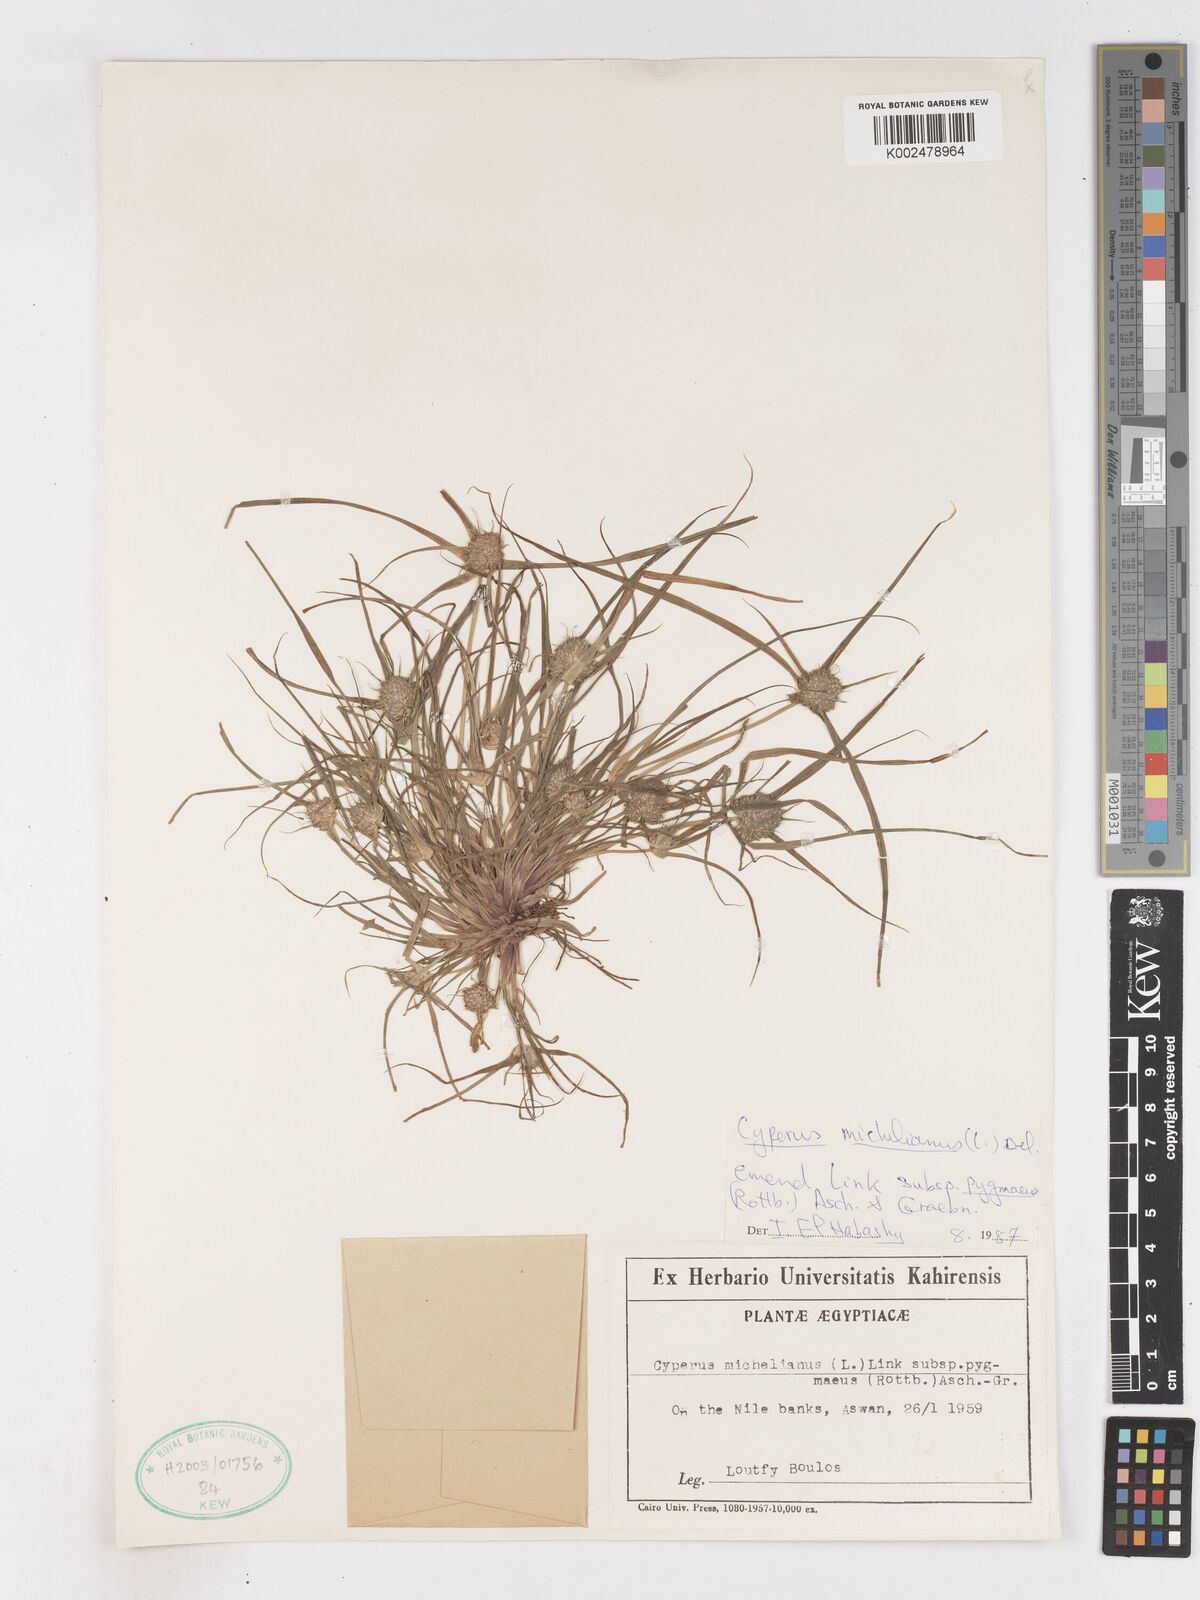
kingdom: Plantae
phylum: Tracheophyta
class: Liliopsida
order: Poales
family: Cyperaceae
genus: Cyperus
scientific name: Cyperus michelianus
